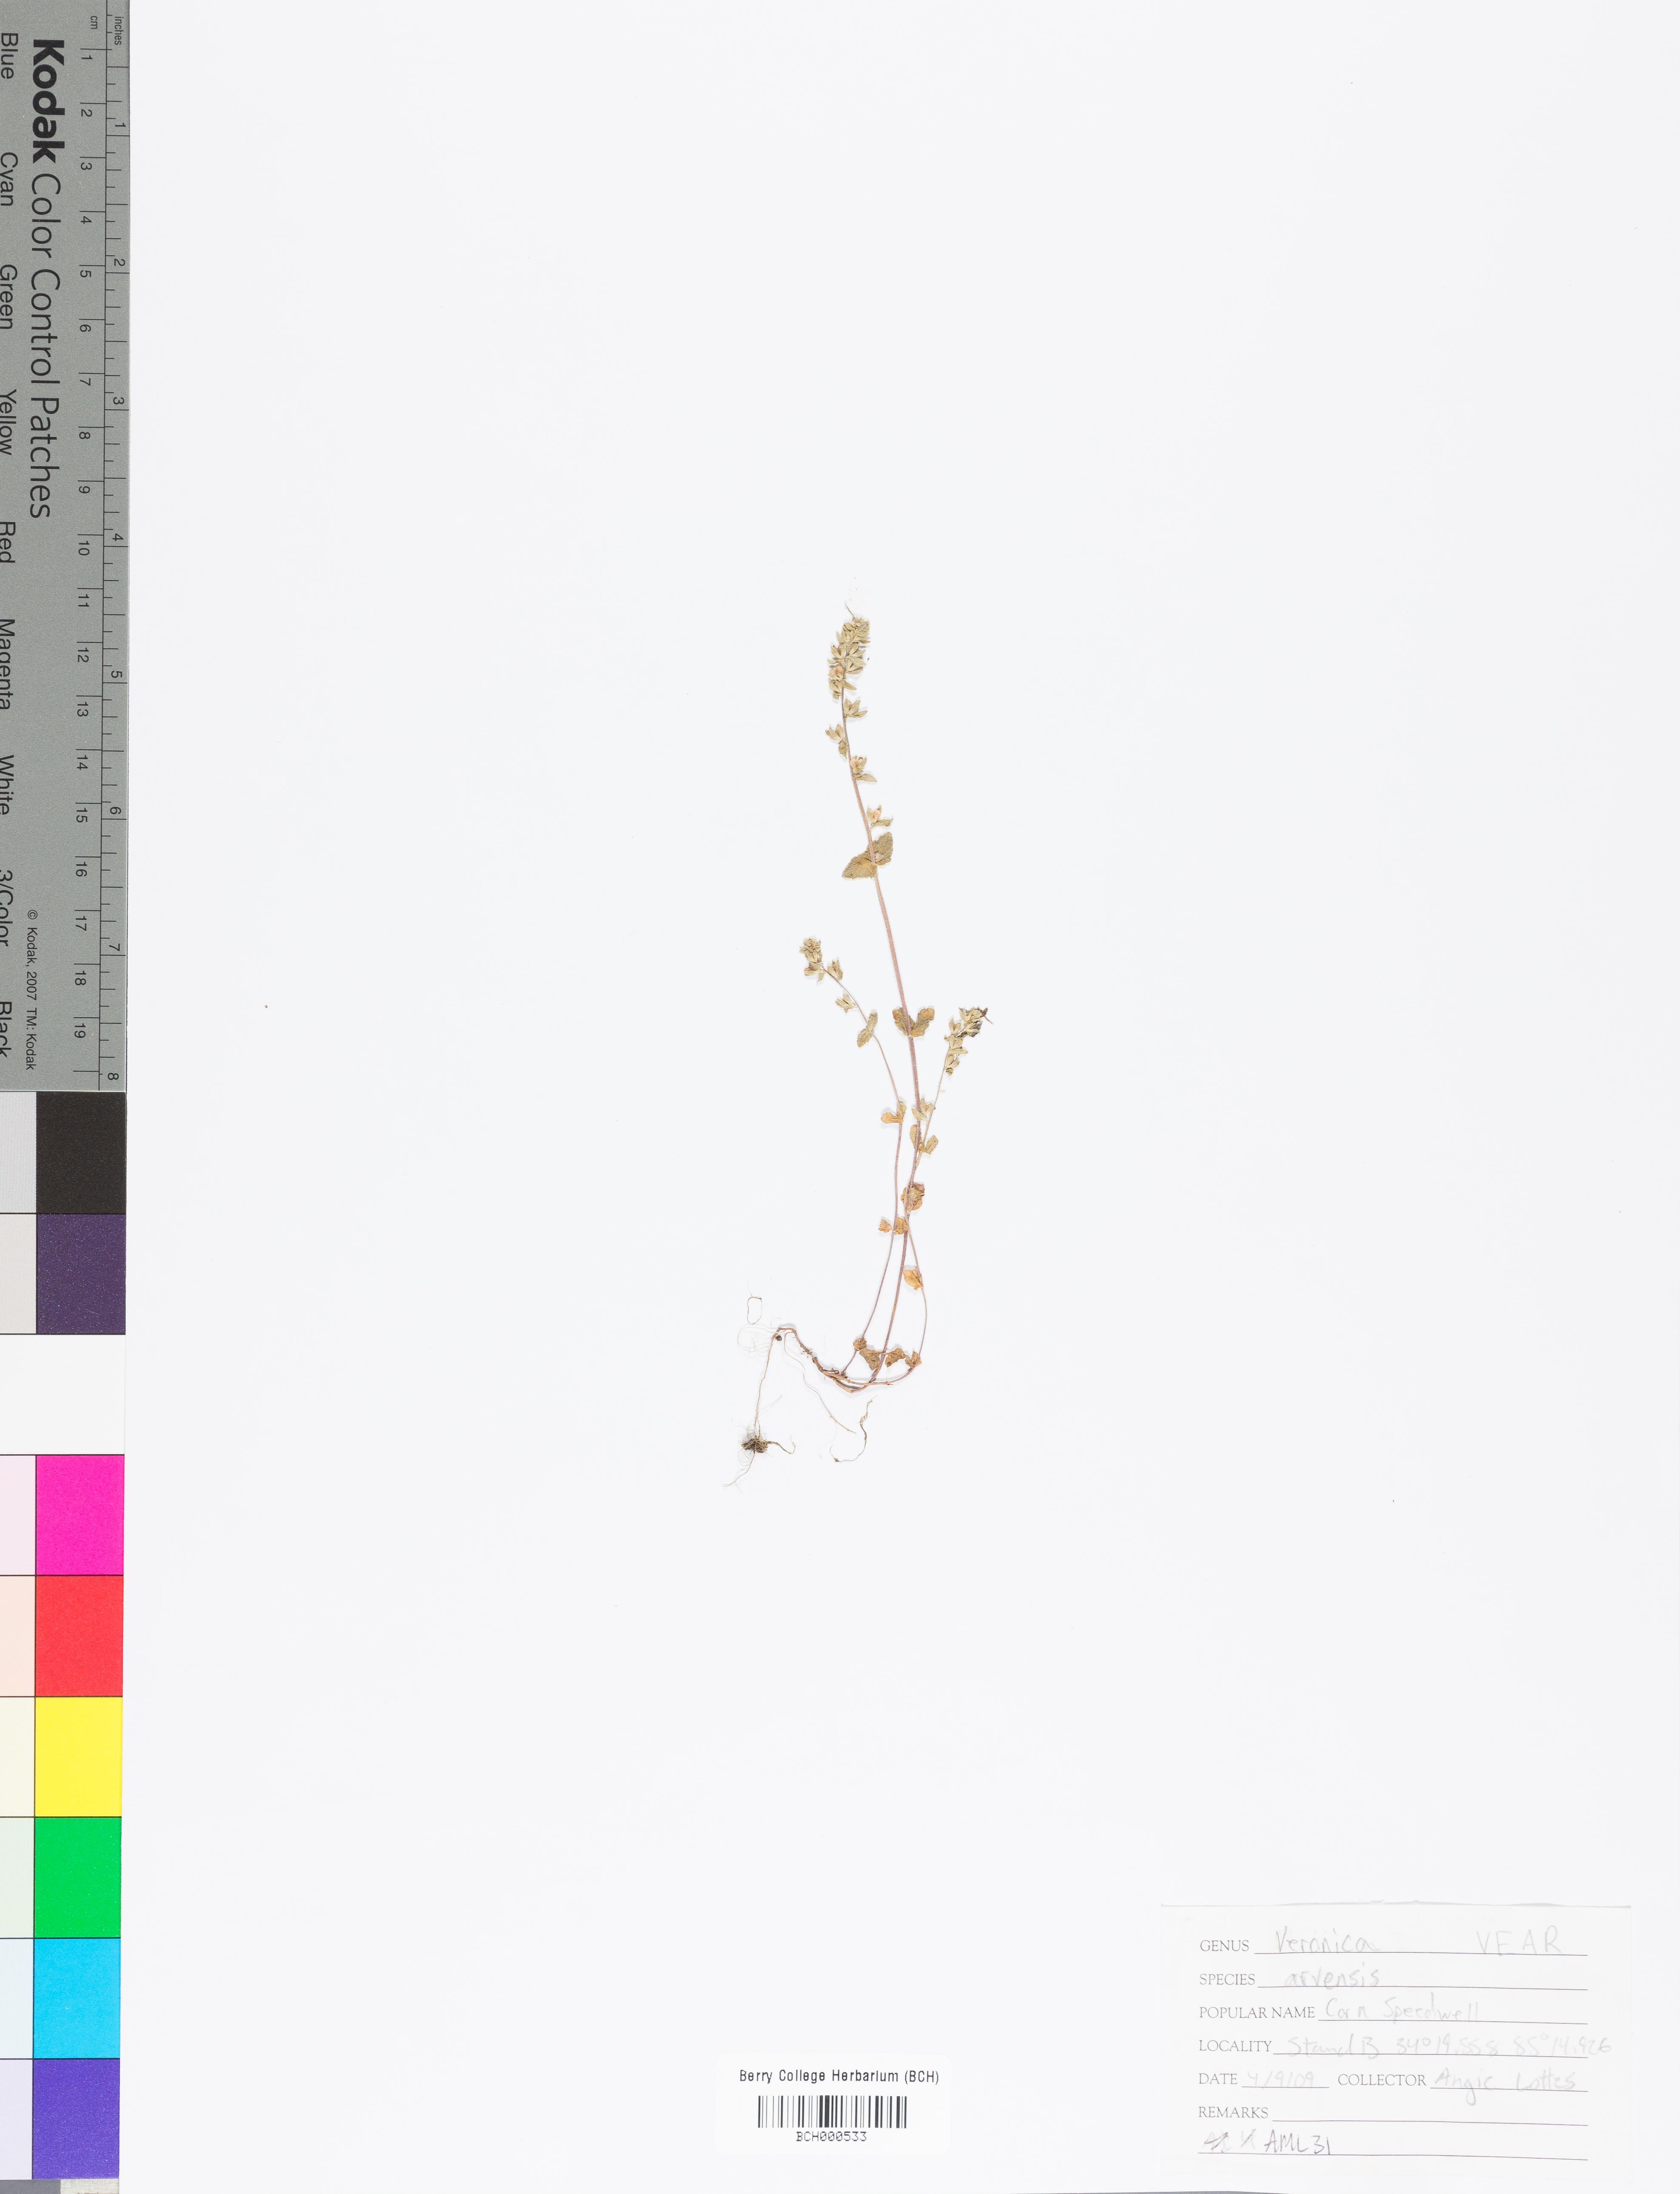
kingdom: Plantae
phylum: Tracheophyta
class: Magnoliopsida
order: Lamiales
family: Plantaginaceae
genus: Veronica
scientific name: Veronica arvensis
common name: Corn speedwell
